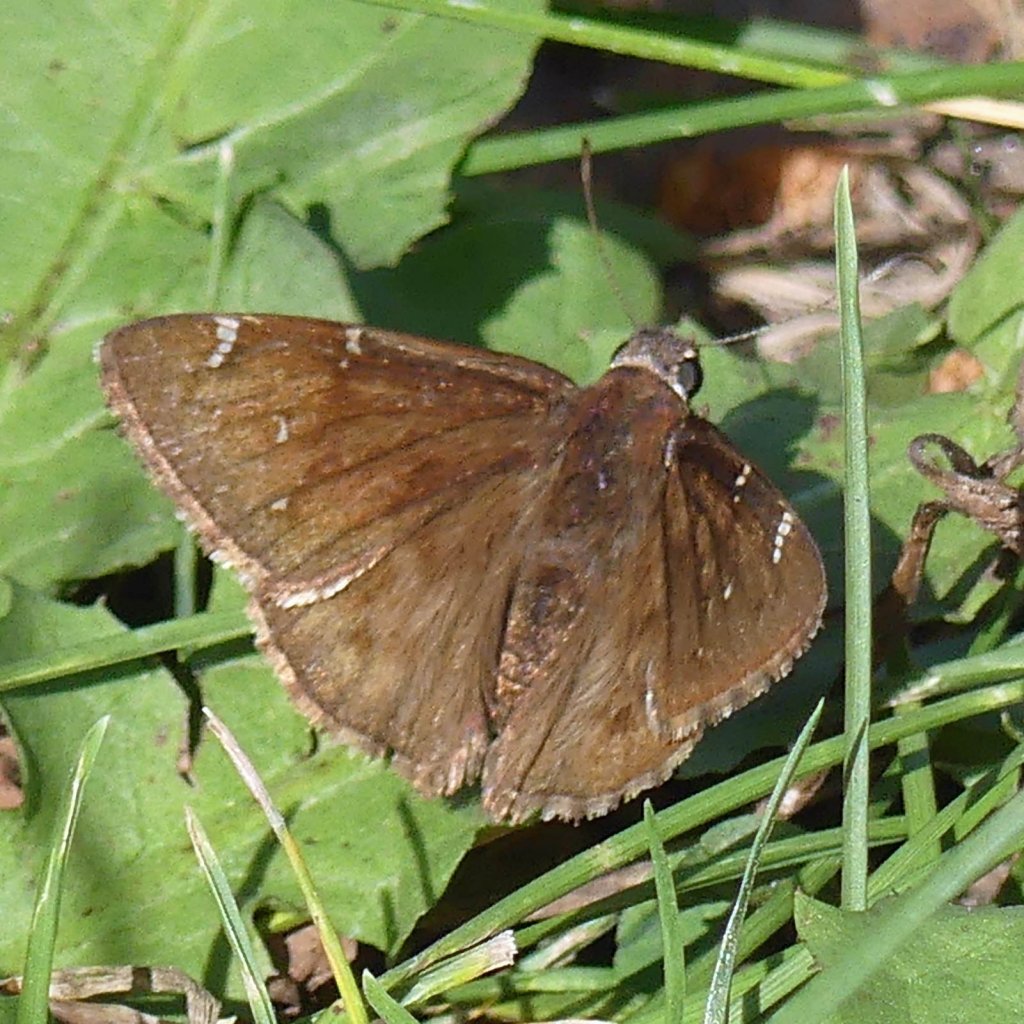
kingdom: Animalia
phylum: Arthropoda
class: Insecta
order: Lepidoptera
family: Hesperiidae
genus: Autochton
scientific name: Autochton
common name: Northern Cloudywing
